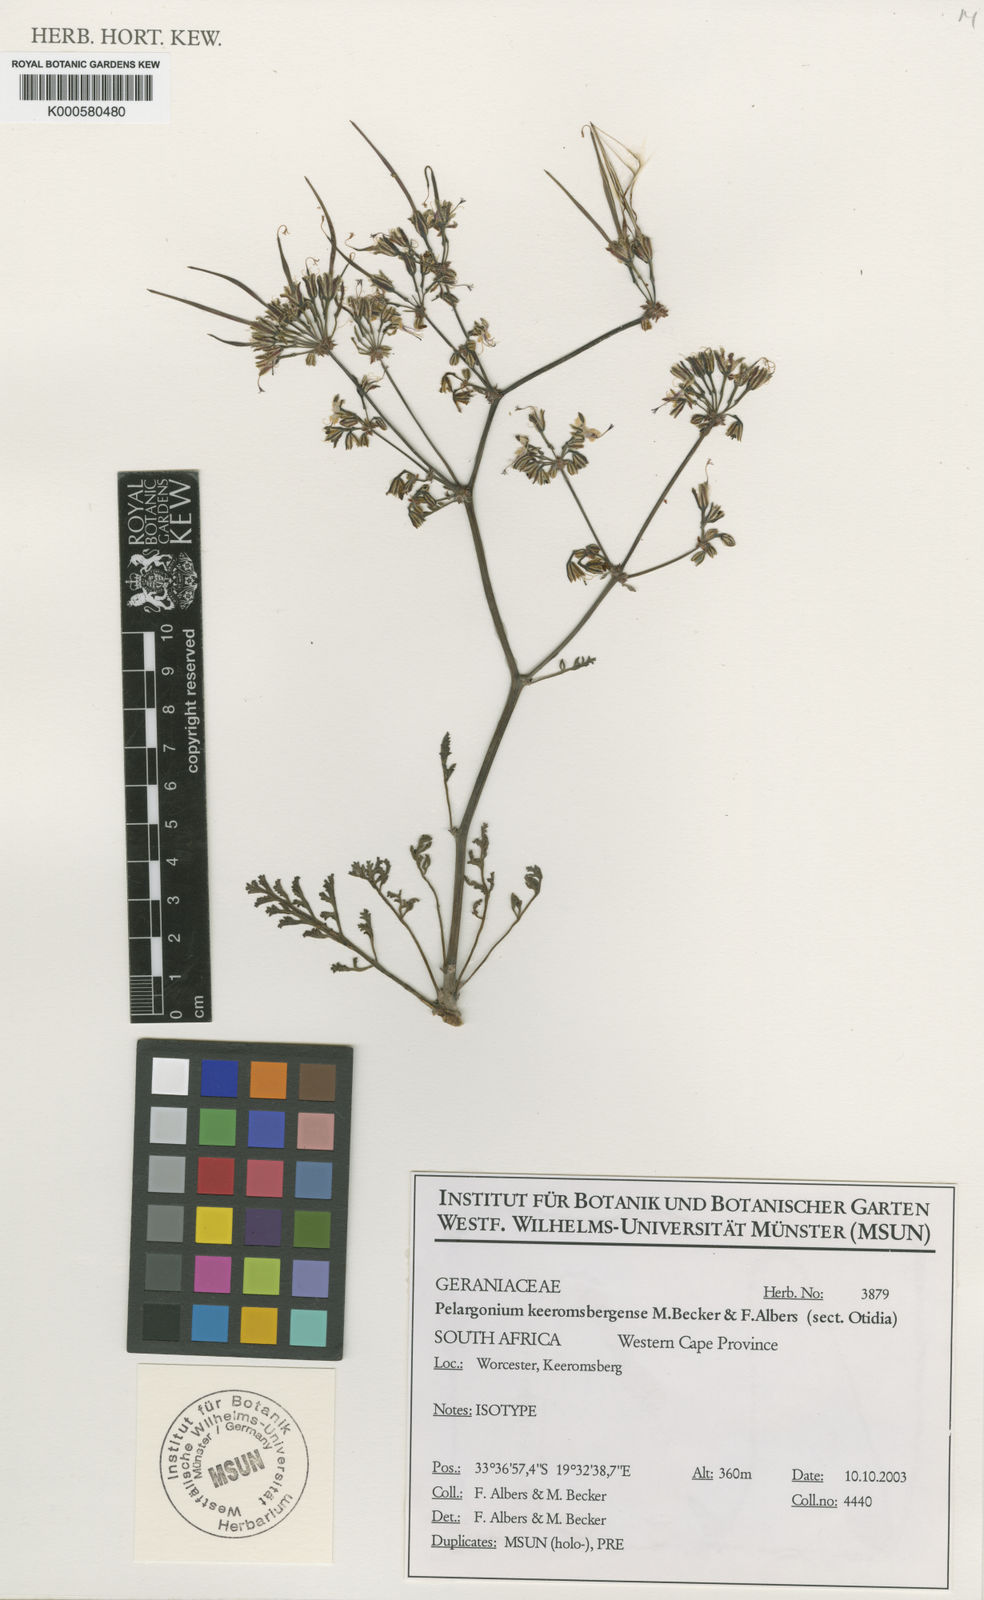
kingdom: Plantae
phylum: Tracheophyta
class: Magnoliopsida
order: Geraniales
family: Geraniaceae
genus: Pelargonium
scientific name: Pelargonium keeromsbergense
